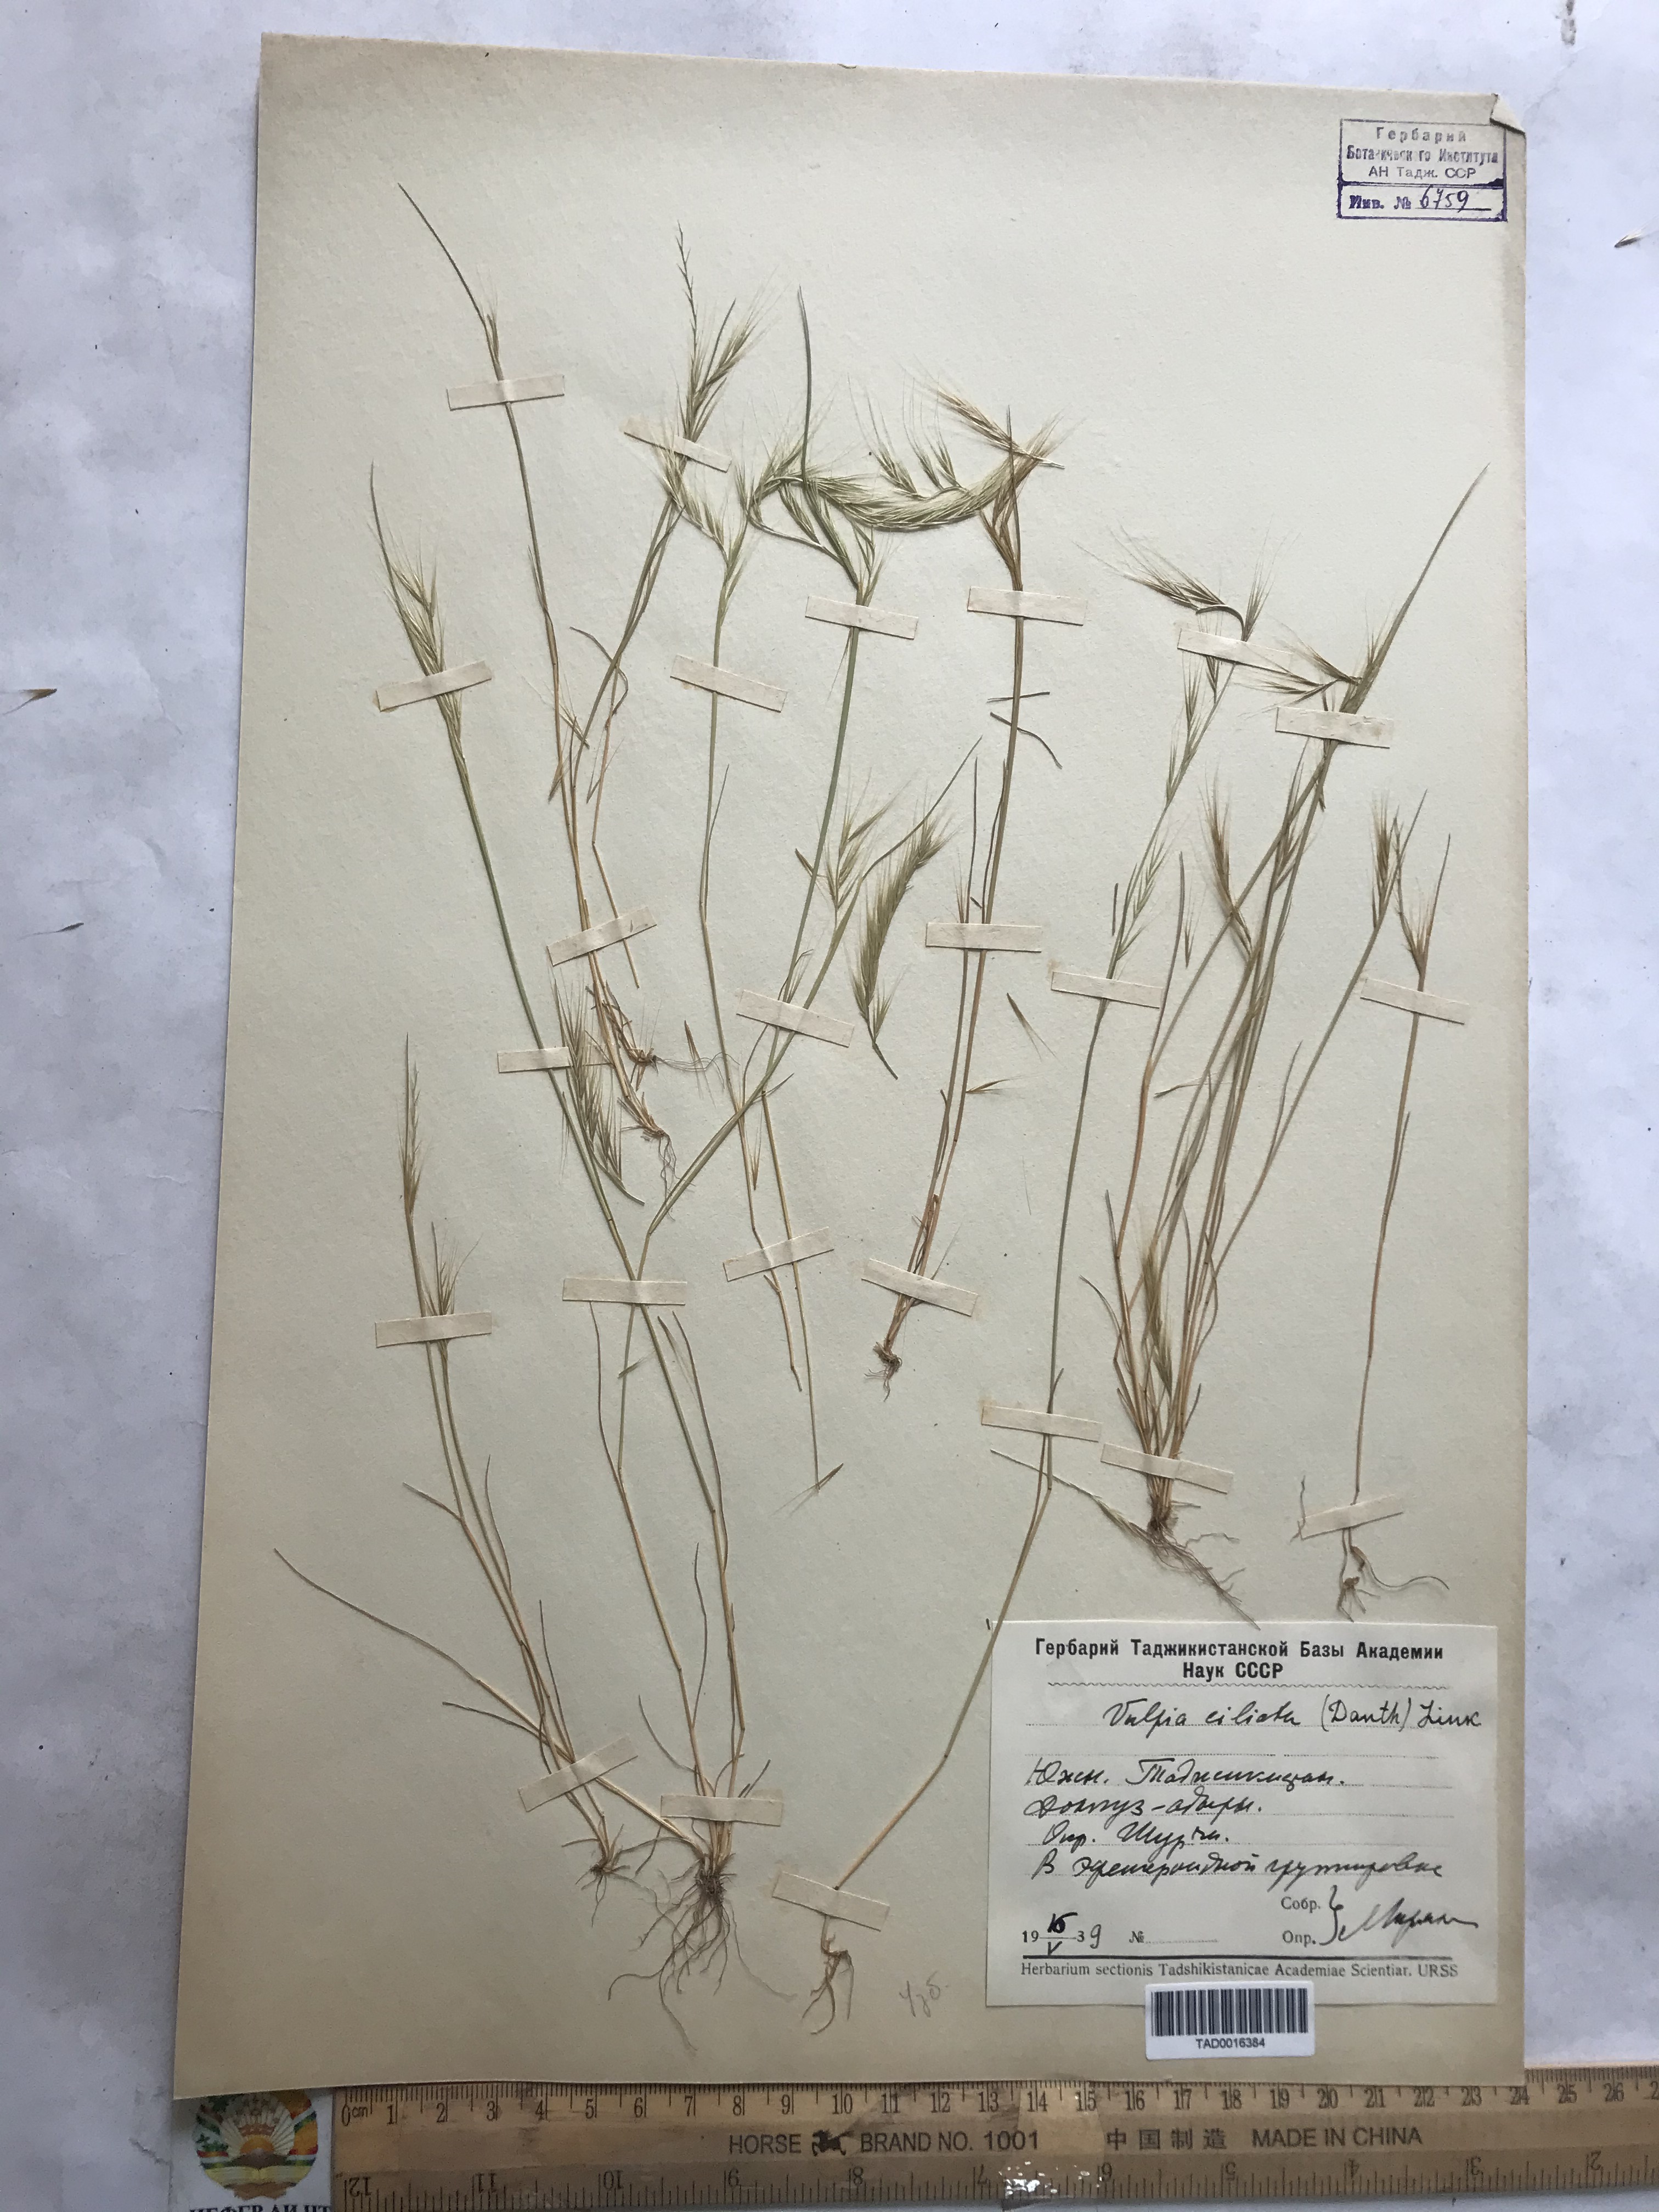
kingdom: Plantae
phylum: Tracheophyta
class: Liliopsida
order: Poales
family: Poaceae
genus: Festuca
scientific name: Festuca ambigua
